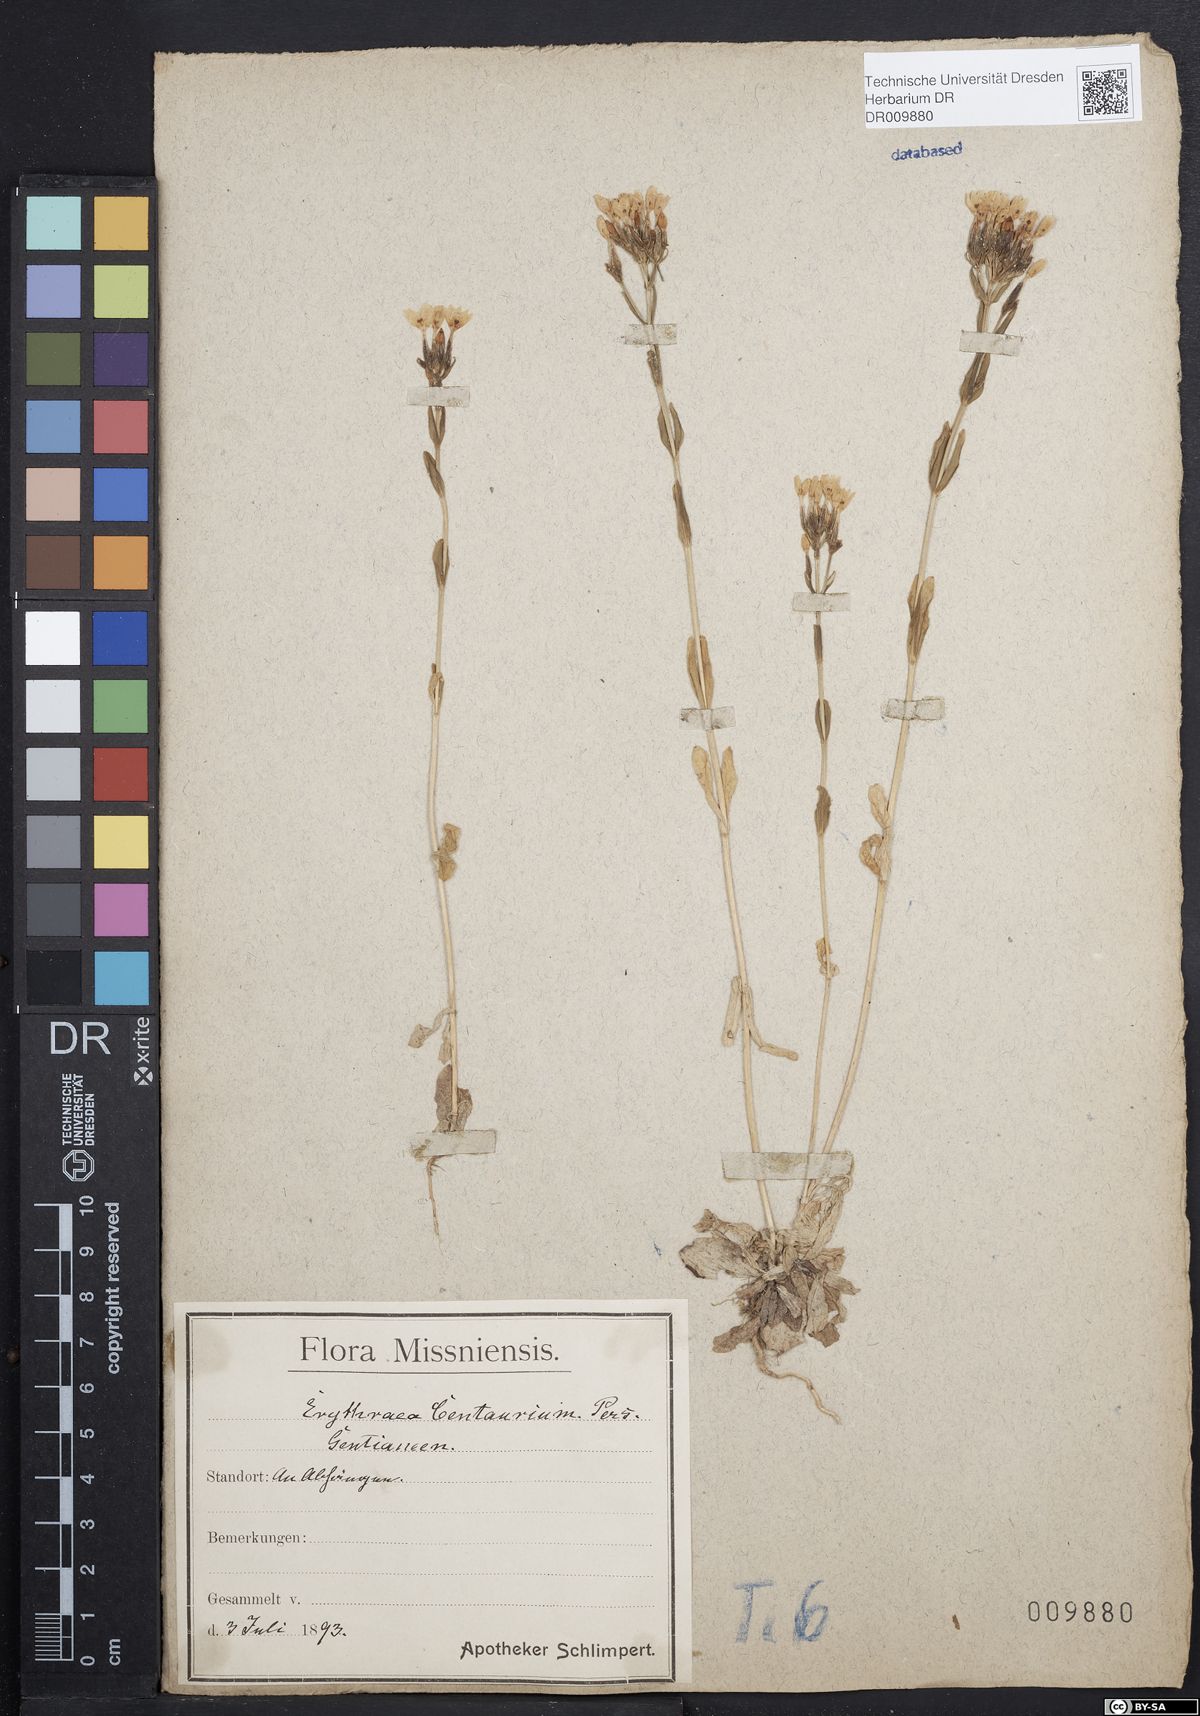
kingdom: Plantae
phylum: Tracheophyta
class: Magnoliopsida
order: Gentianales
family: Gentianaceae
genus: Centaurium
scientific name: Centaurium erythraea
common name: Common centaury
